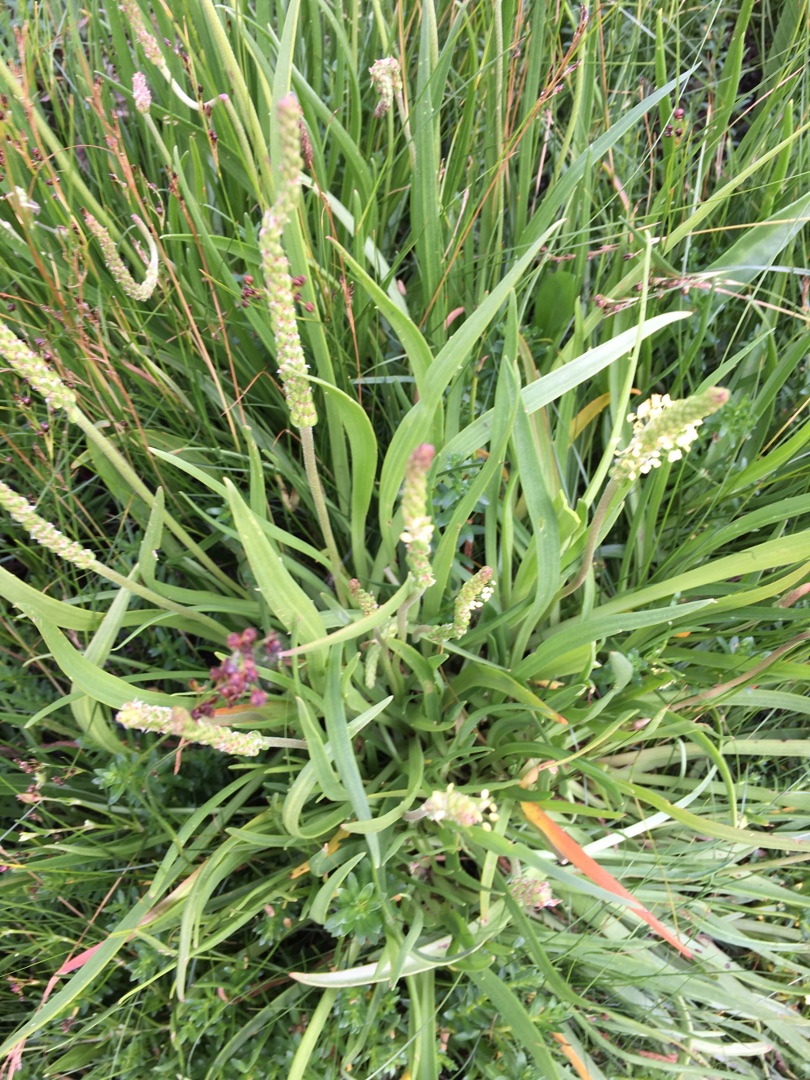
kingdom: Plantae
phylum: Tracheophyta
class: Magnoliopsida
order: Lamiales
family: Plantaginaceae
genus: Plantago
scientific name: Plantago maritima
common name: Strand-vejbred
